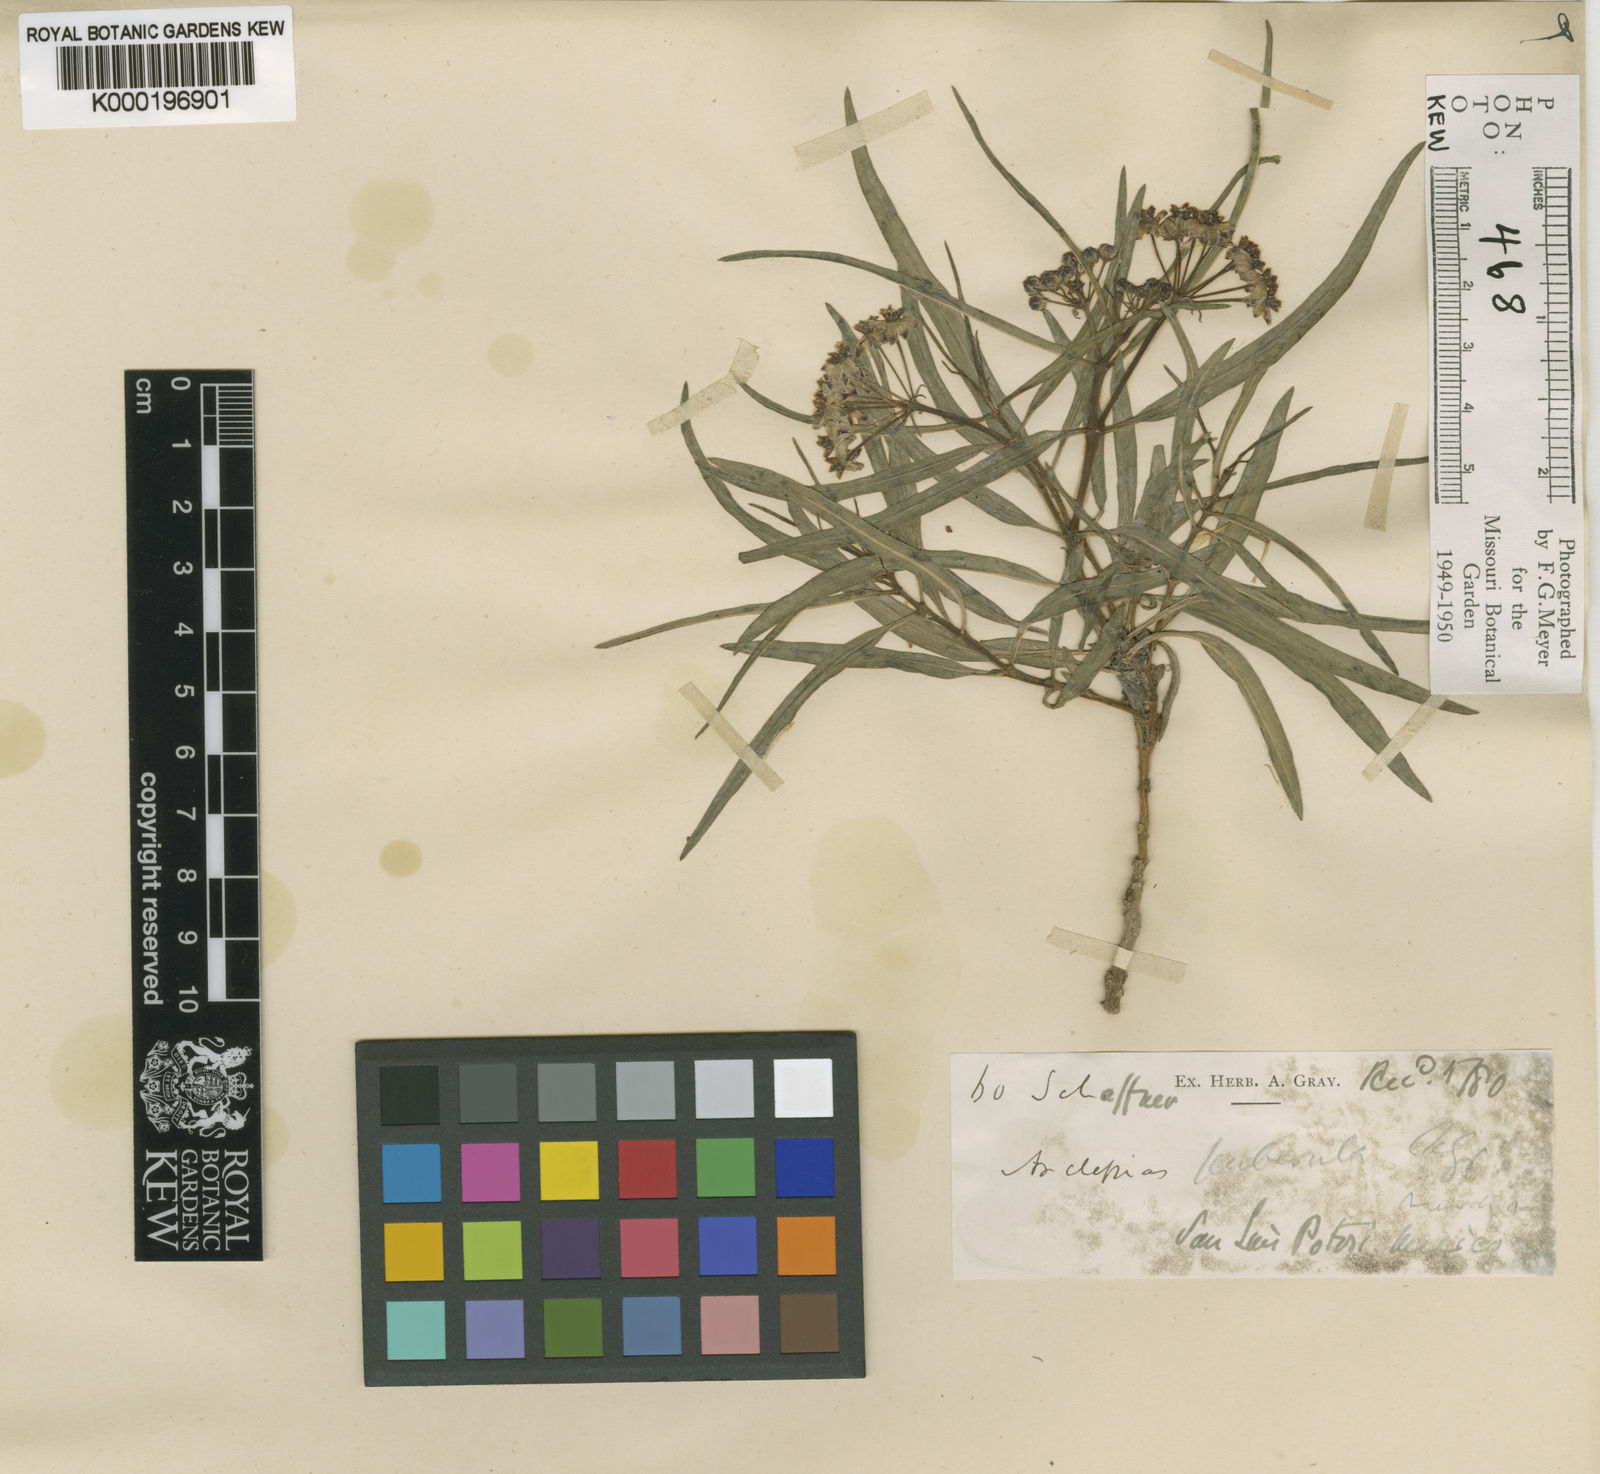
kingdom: Plantae
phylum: Tracheophyta
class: Magnoliopsida
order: Gentianales
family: Apocynaceae
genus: Asclepias
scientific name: Asclepias puberula
